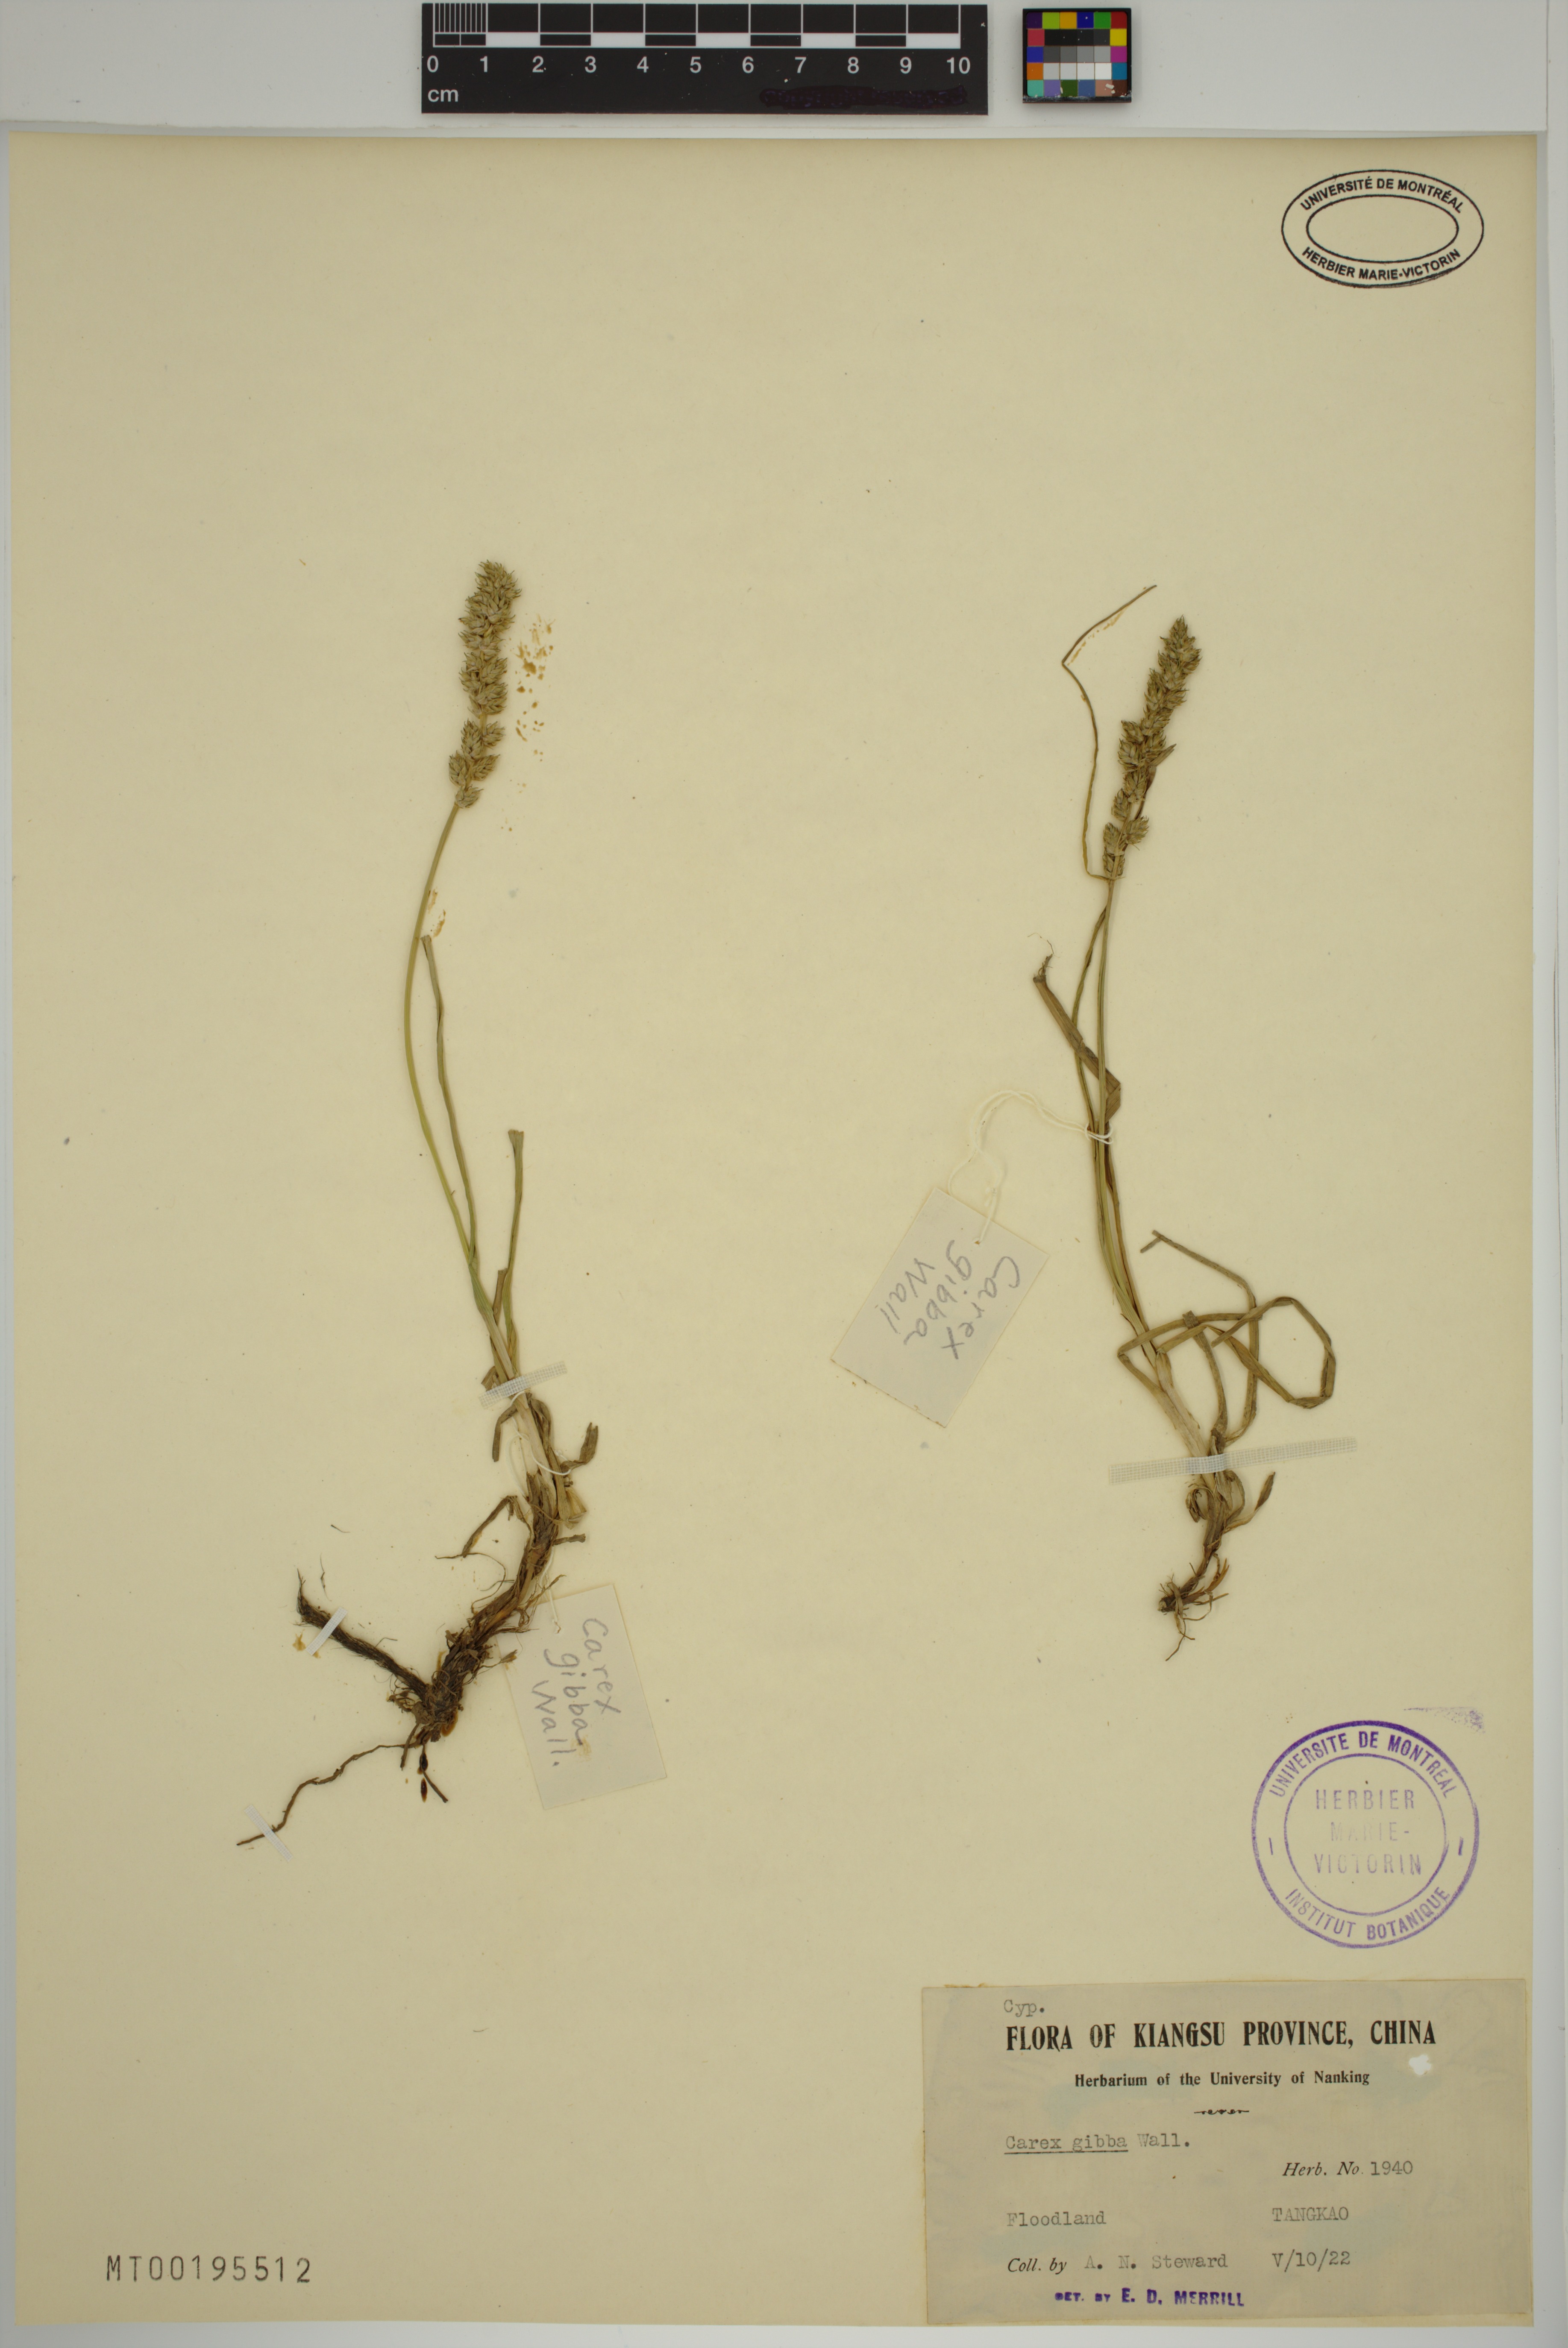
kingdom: Plantae
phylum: Tracheophyta
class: Liliopsida
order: Poales
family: Cyperaceae
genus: Carex
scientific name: Carex gibba
